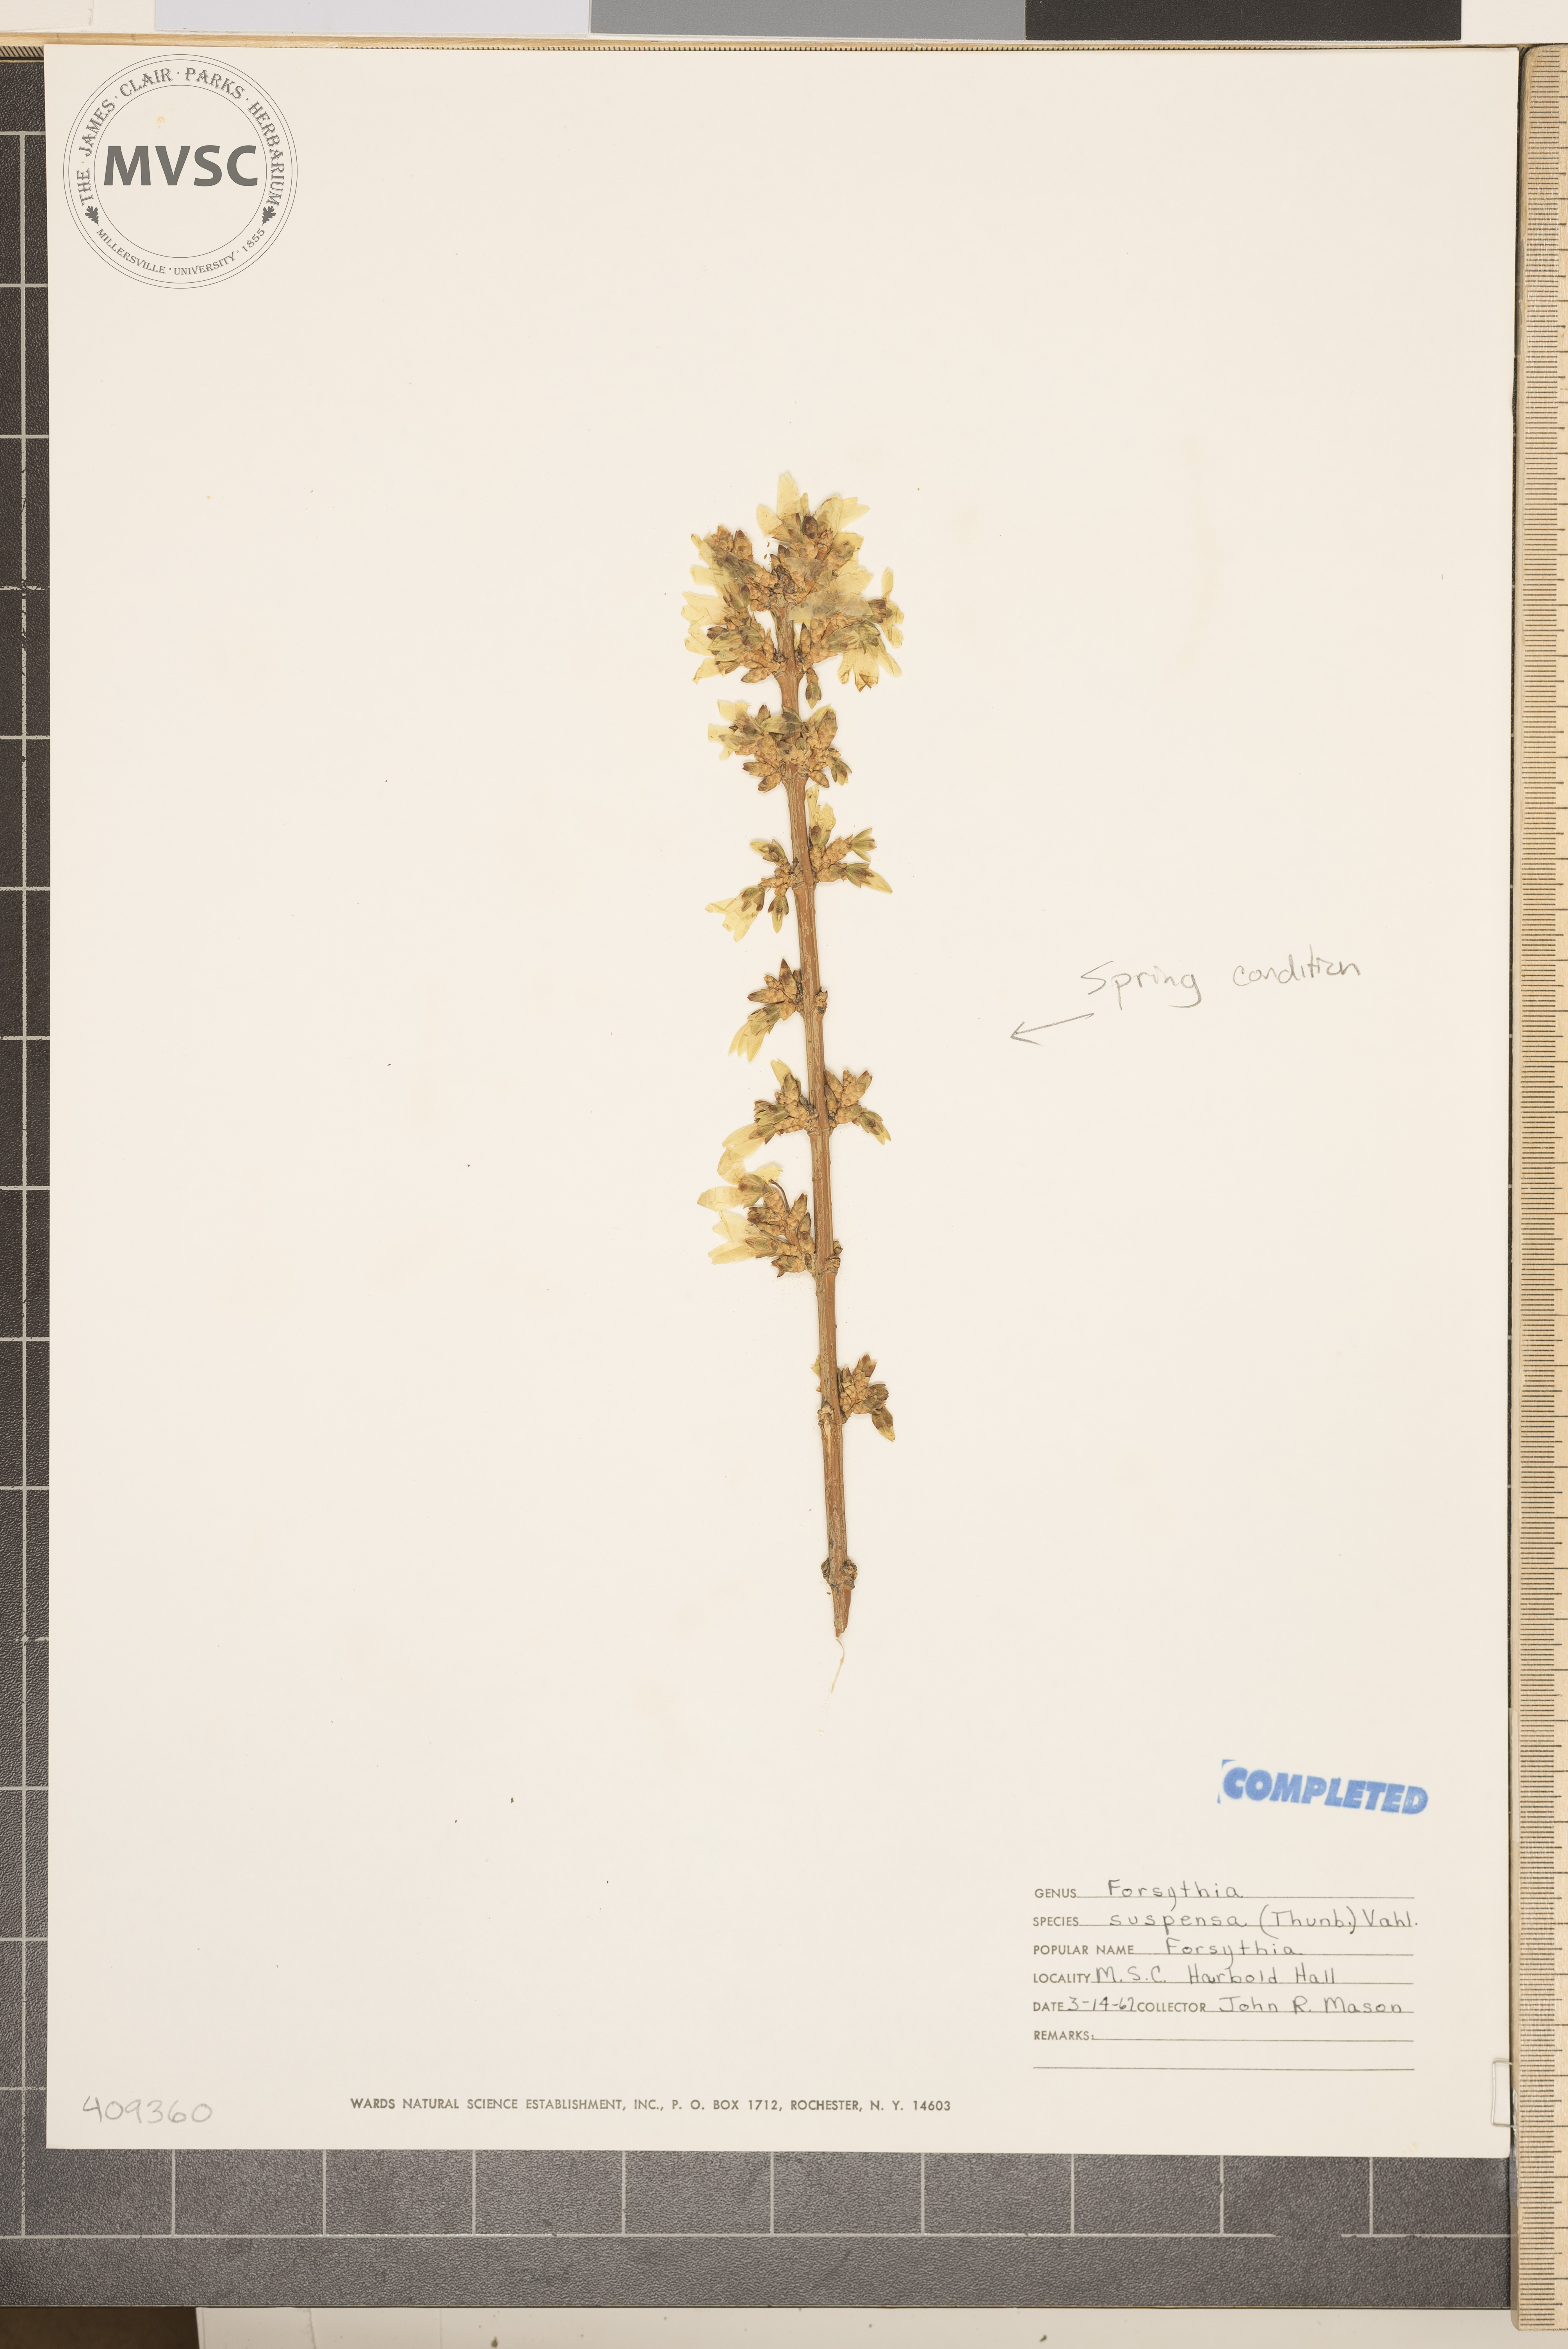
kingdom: Plantae
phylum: Tracheophyta
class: Magnoliopsida
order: Lamiales
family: Oleaceae
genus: Forsythia
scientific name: Forsythia suspensa
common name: Weeping forsythia
